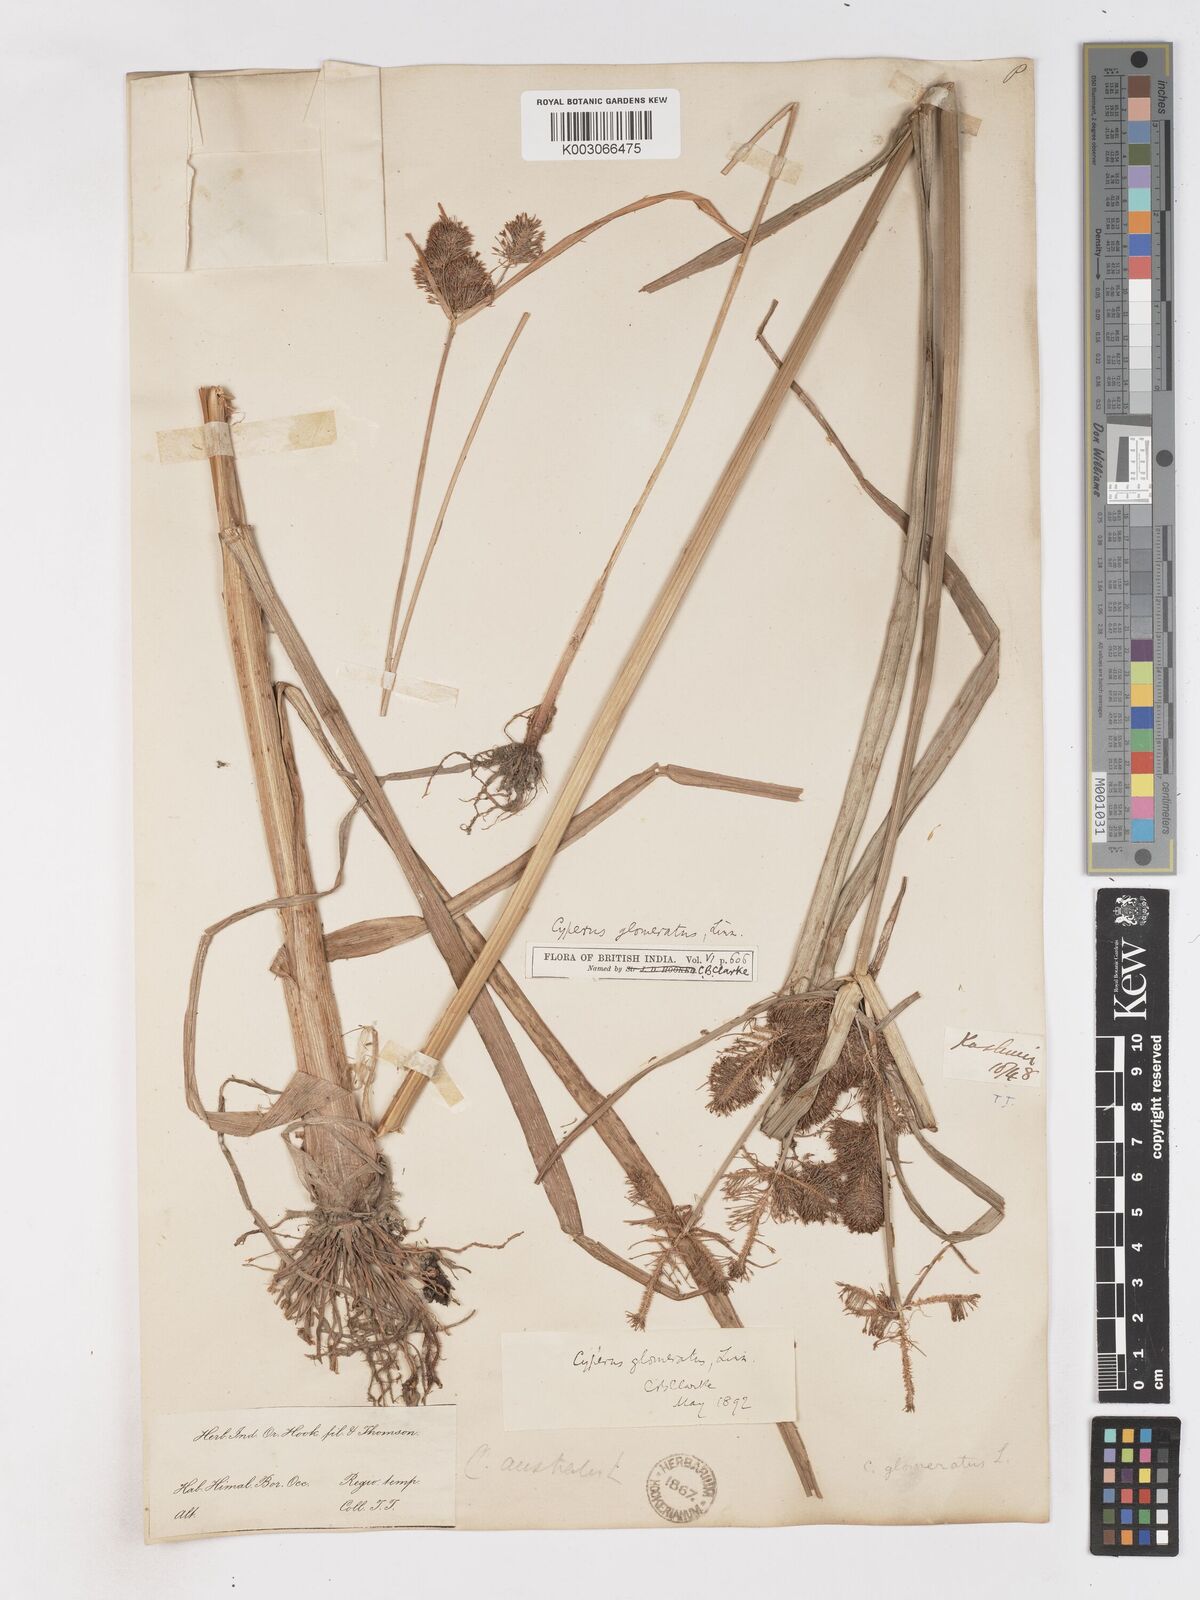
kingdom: Plantae
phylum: Tracheophyta
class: Liliopsida
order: Poales
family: Cyperaceae
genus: Cyperus
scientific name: Cyperus glomeratus
